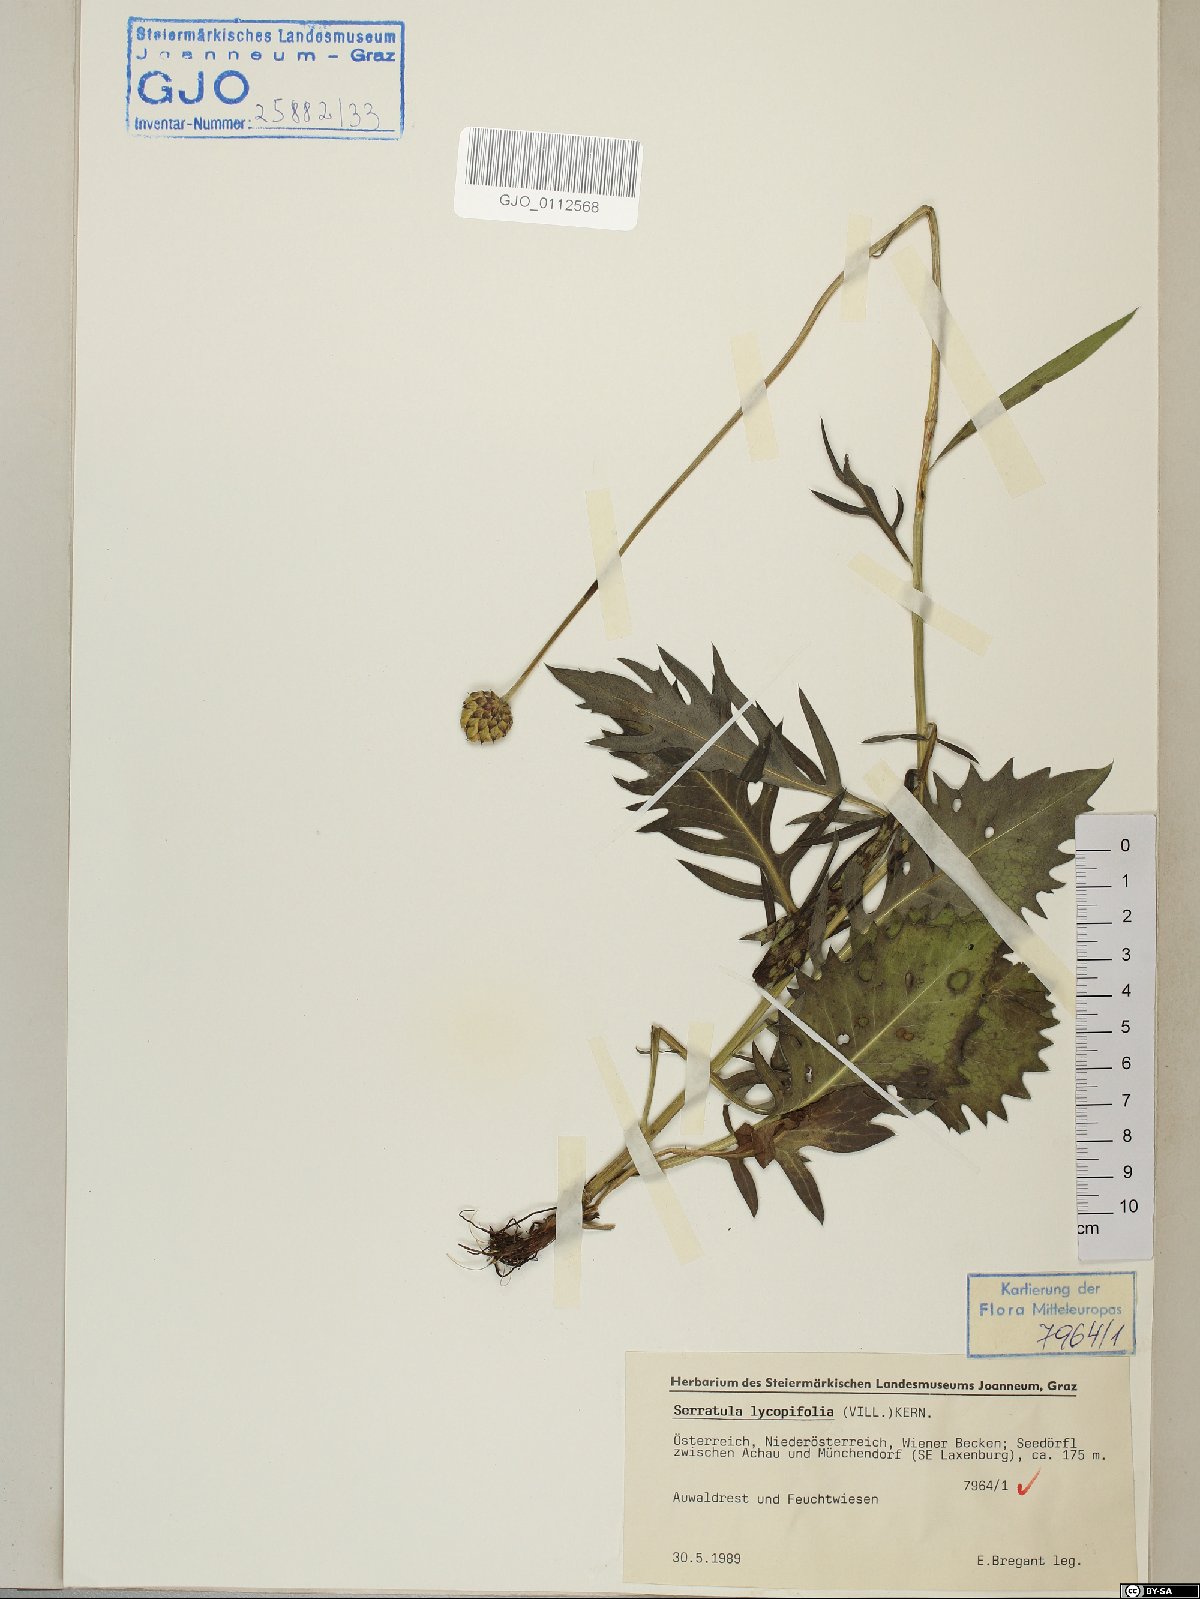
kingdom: Plantae
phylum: Tracheophyta
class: Magnoliopsida
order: Asterales
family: Asteraceae
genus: Klasea
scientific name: Klasea lycopifolia
